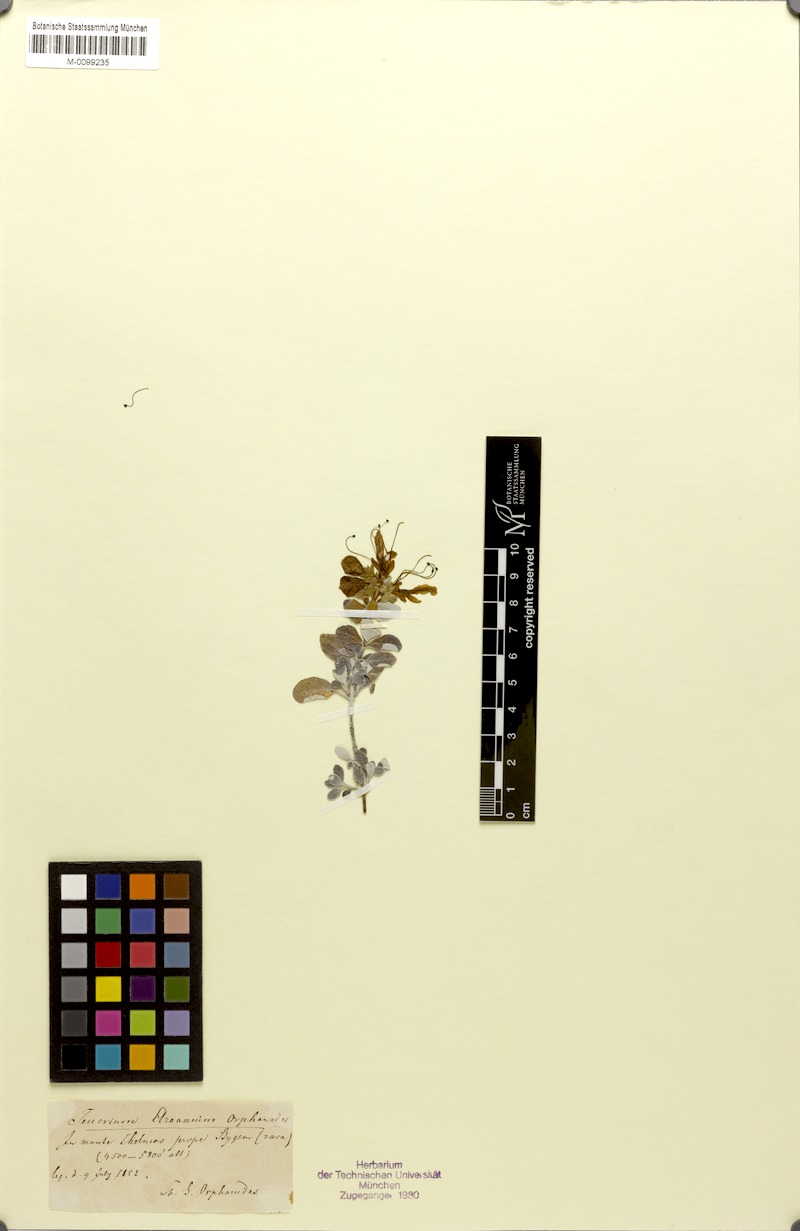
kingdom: Plantae
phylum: Tracheophyta
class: Magnoliopsida
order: Lamiales
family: Lamiaceae
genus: Teucrium
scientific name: Teucrium aroanium
